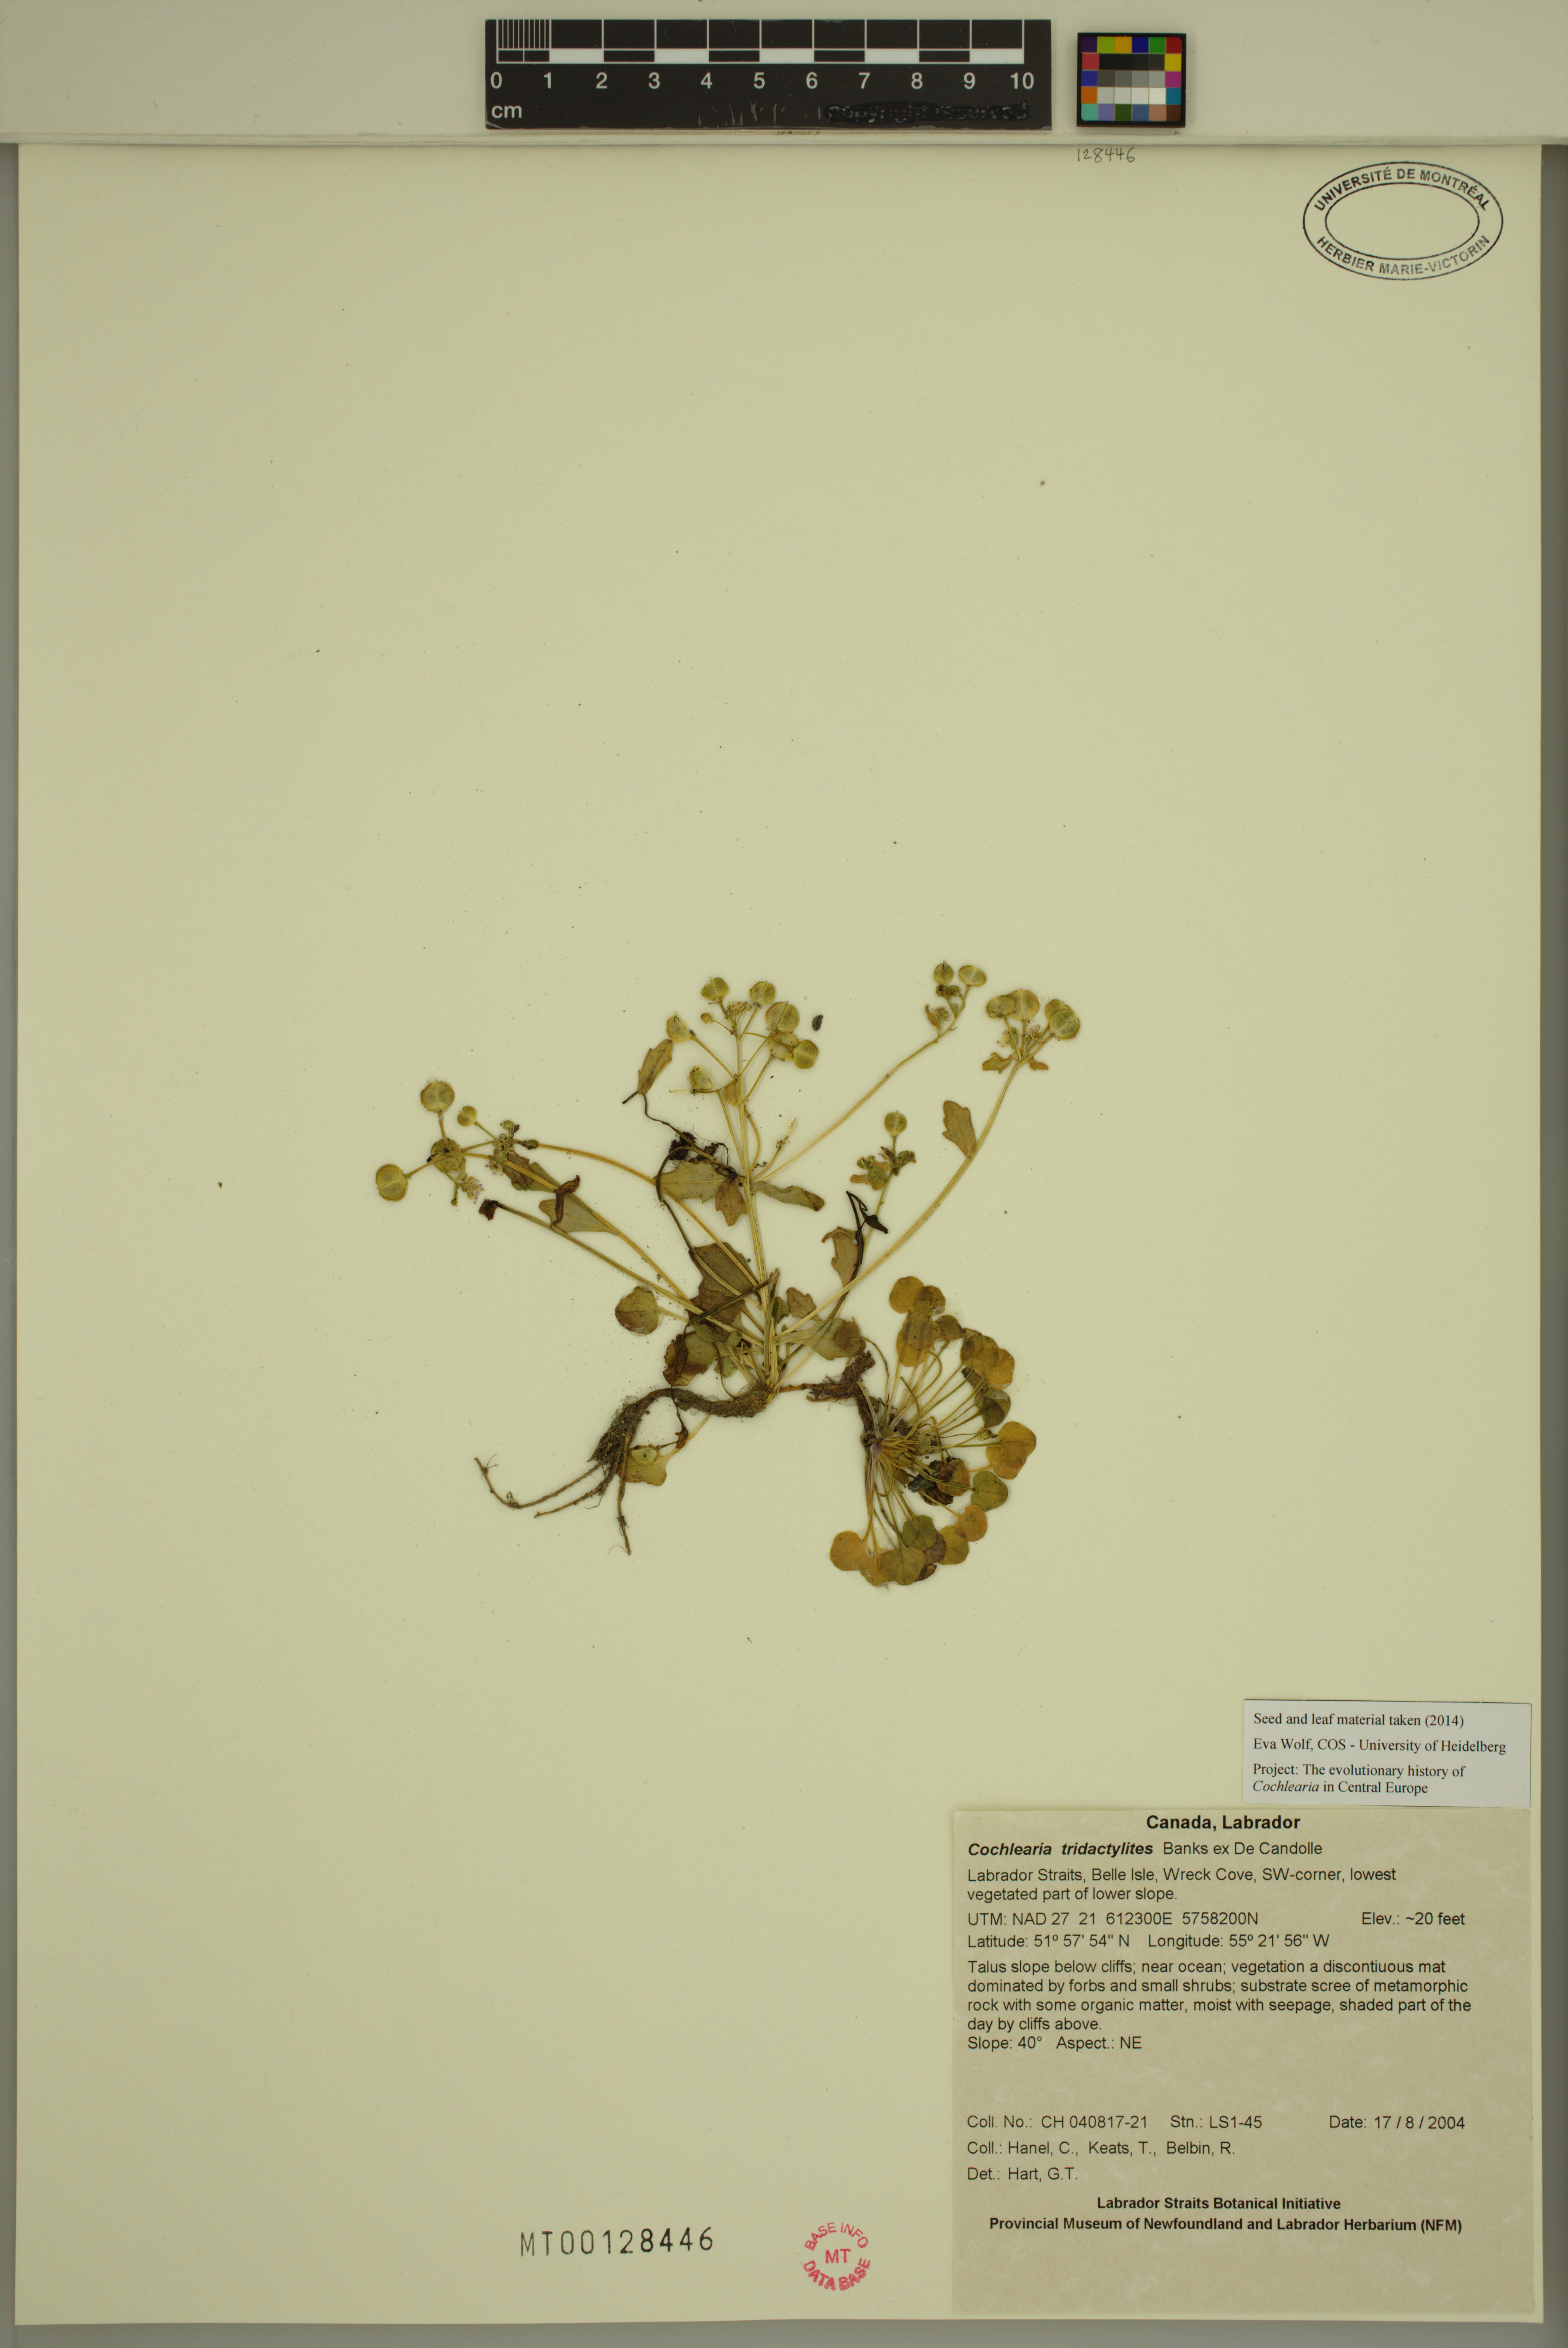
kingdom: Plantae
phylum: Tracheophyta
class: Magnoliopsida
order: Brassicales
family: Brassicaceae
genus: Cochlearia
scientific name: Cochlearia tridactylites
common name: Limestone scurvygrass
